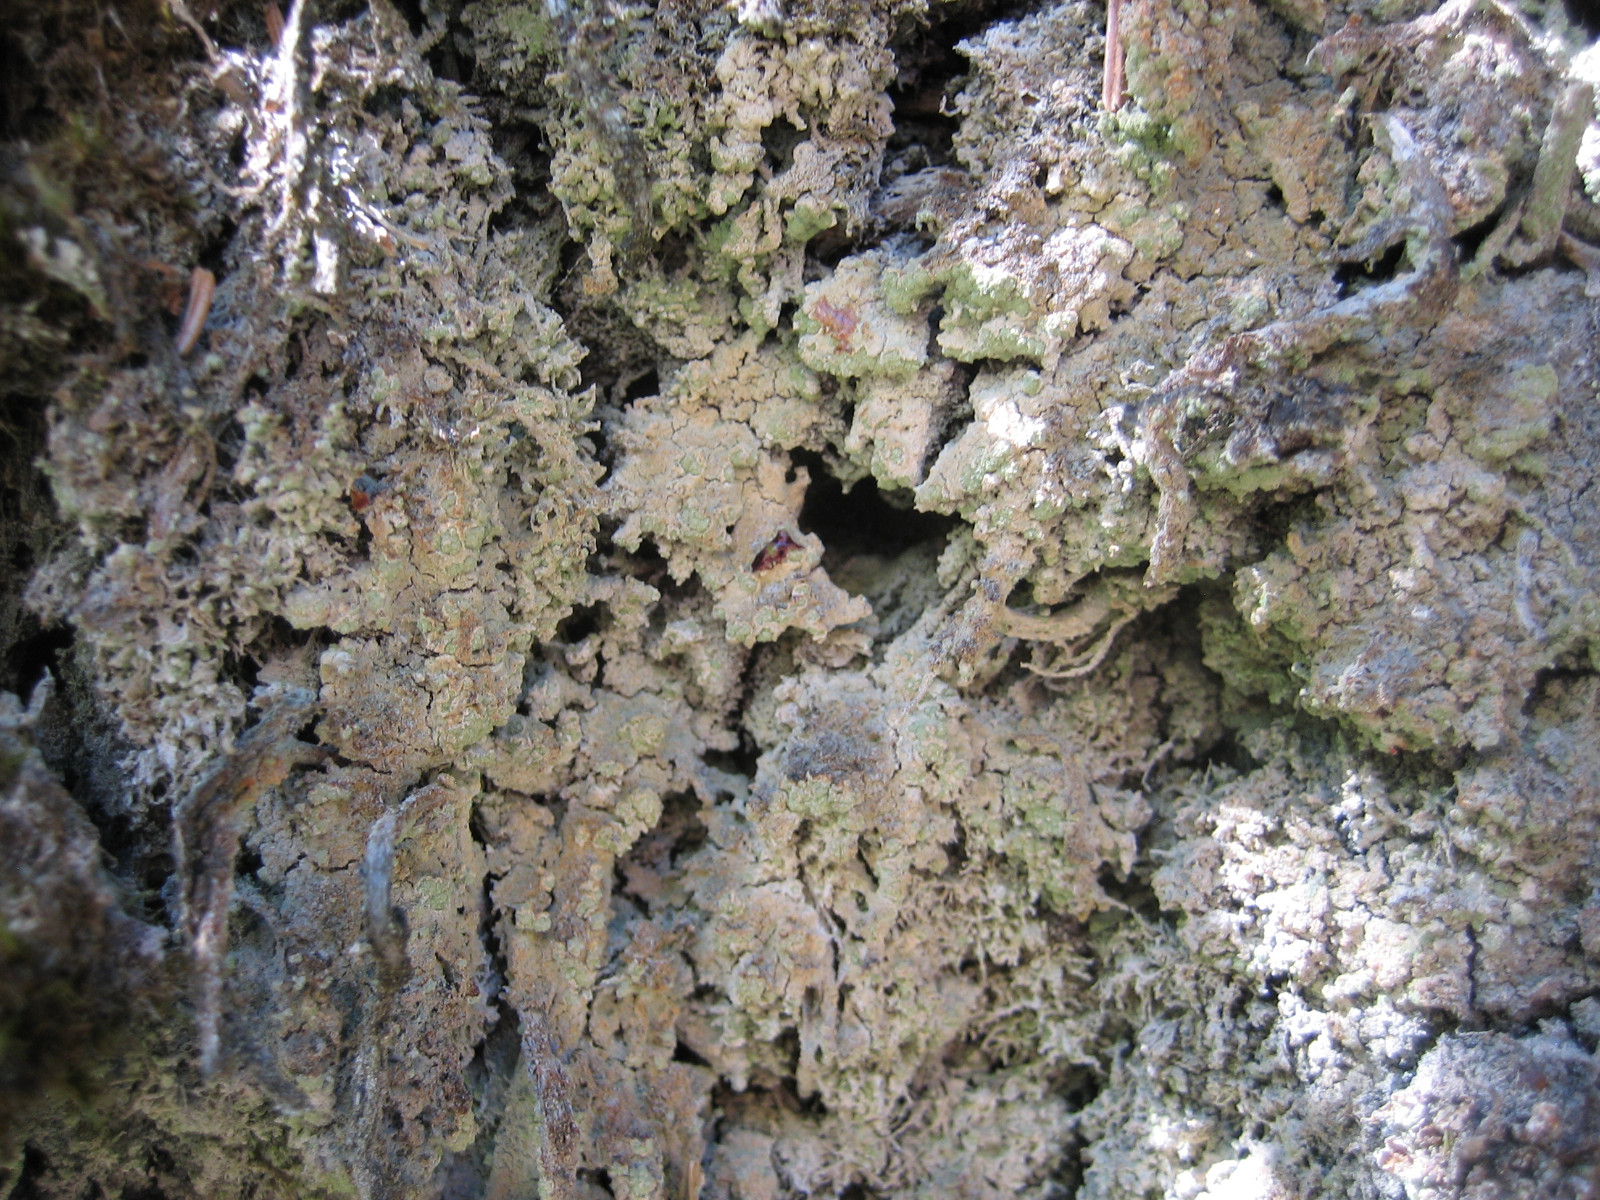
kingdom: Fungi
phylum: Ascomycota
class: Lecanoromycetes
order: Baeomycetales
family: Trapeliaceae
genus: Trapeliopsis
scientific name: Trapeliopsis pseudogranulosa
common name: gulbroget skivelav
